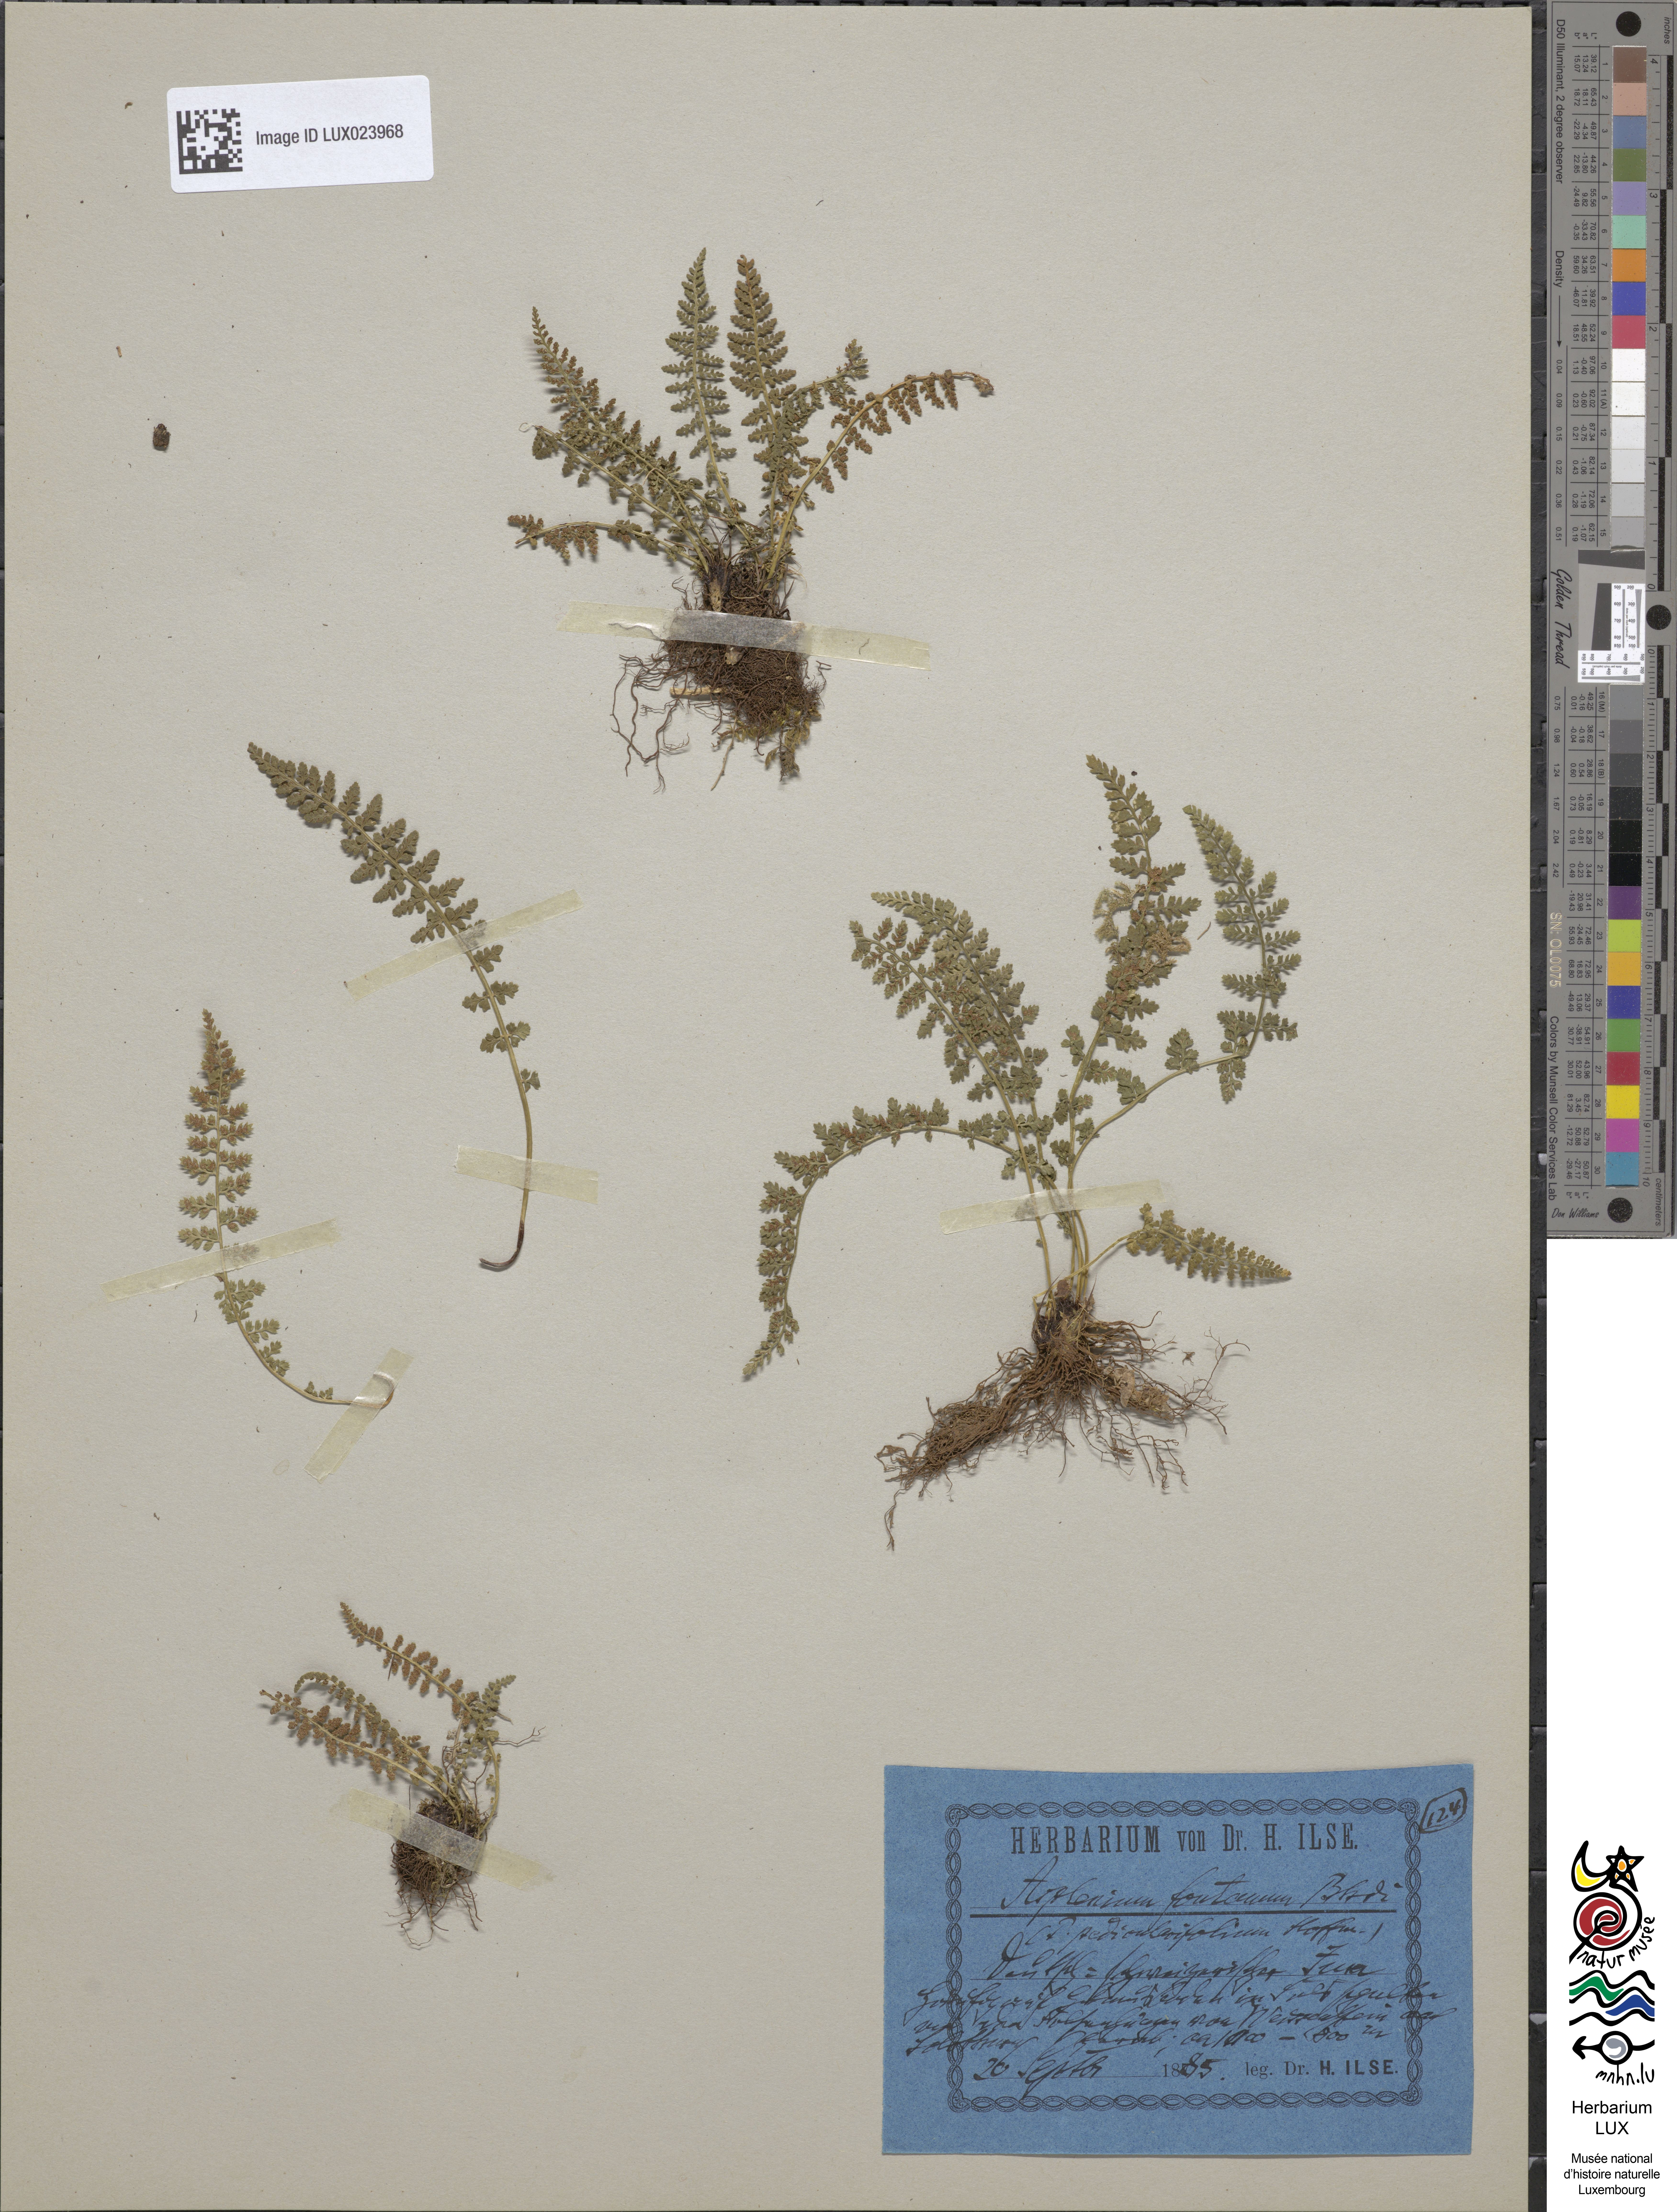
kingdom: Plantae
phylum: Tracheophyta
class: Polypodiopsida
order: Polypodiales
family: Aspleniaceae
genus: Asplenium
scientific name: Asplenium fontanum
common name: Fountain spleenwort
